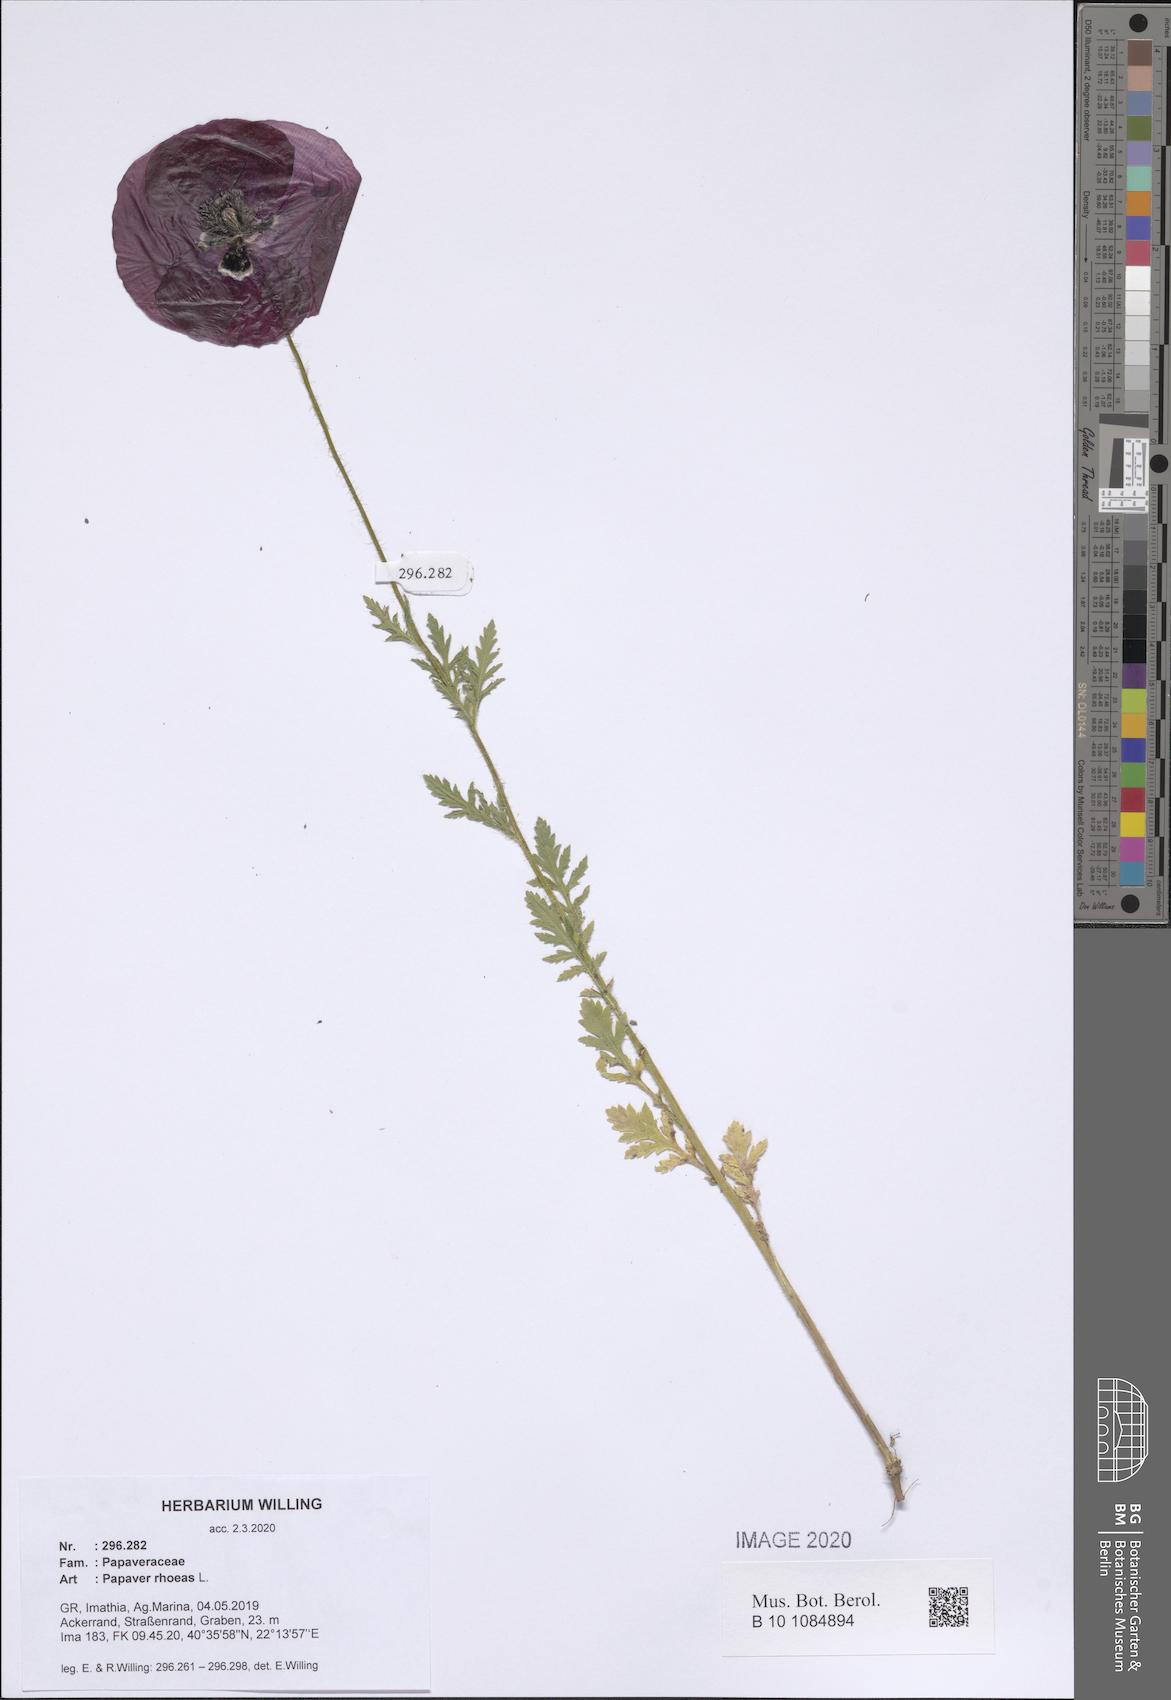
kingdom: Plantae
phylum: Tracheophyta
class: Magnoliopsida
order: Ranunculales
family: Papaveraceae
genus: Papaver
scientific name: Papaver rhoeas
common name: Corn poppy
